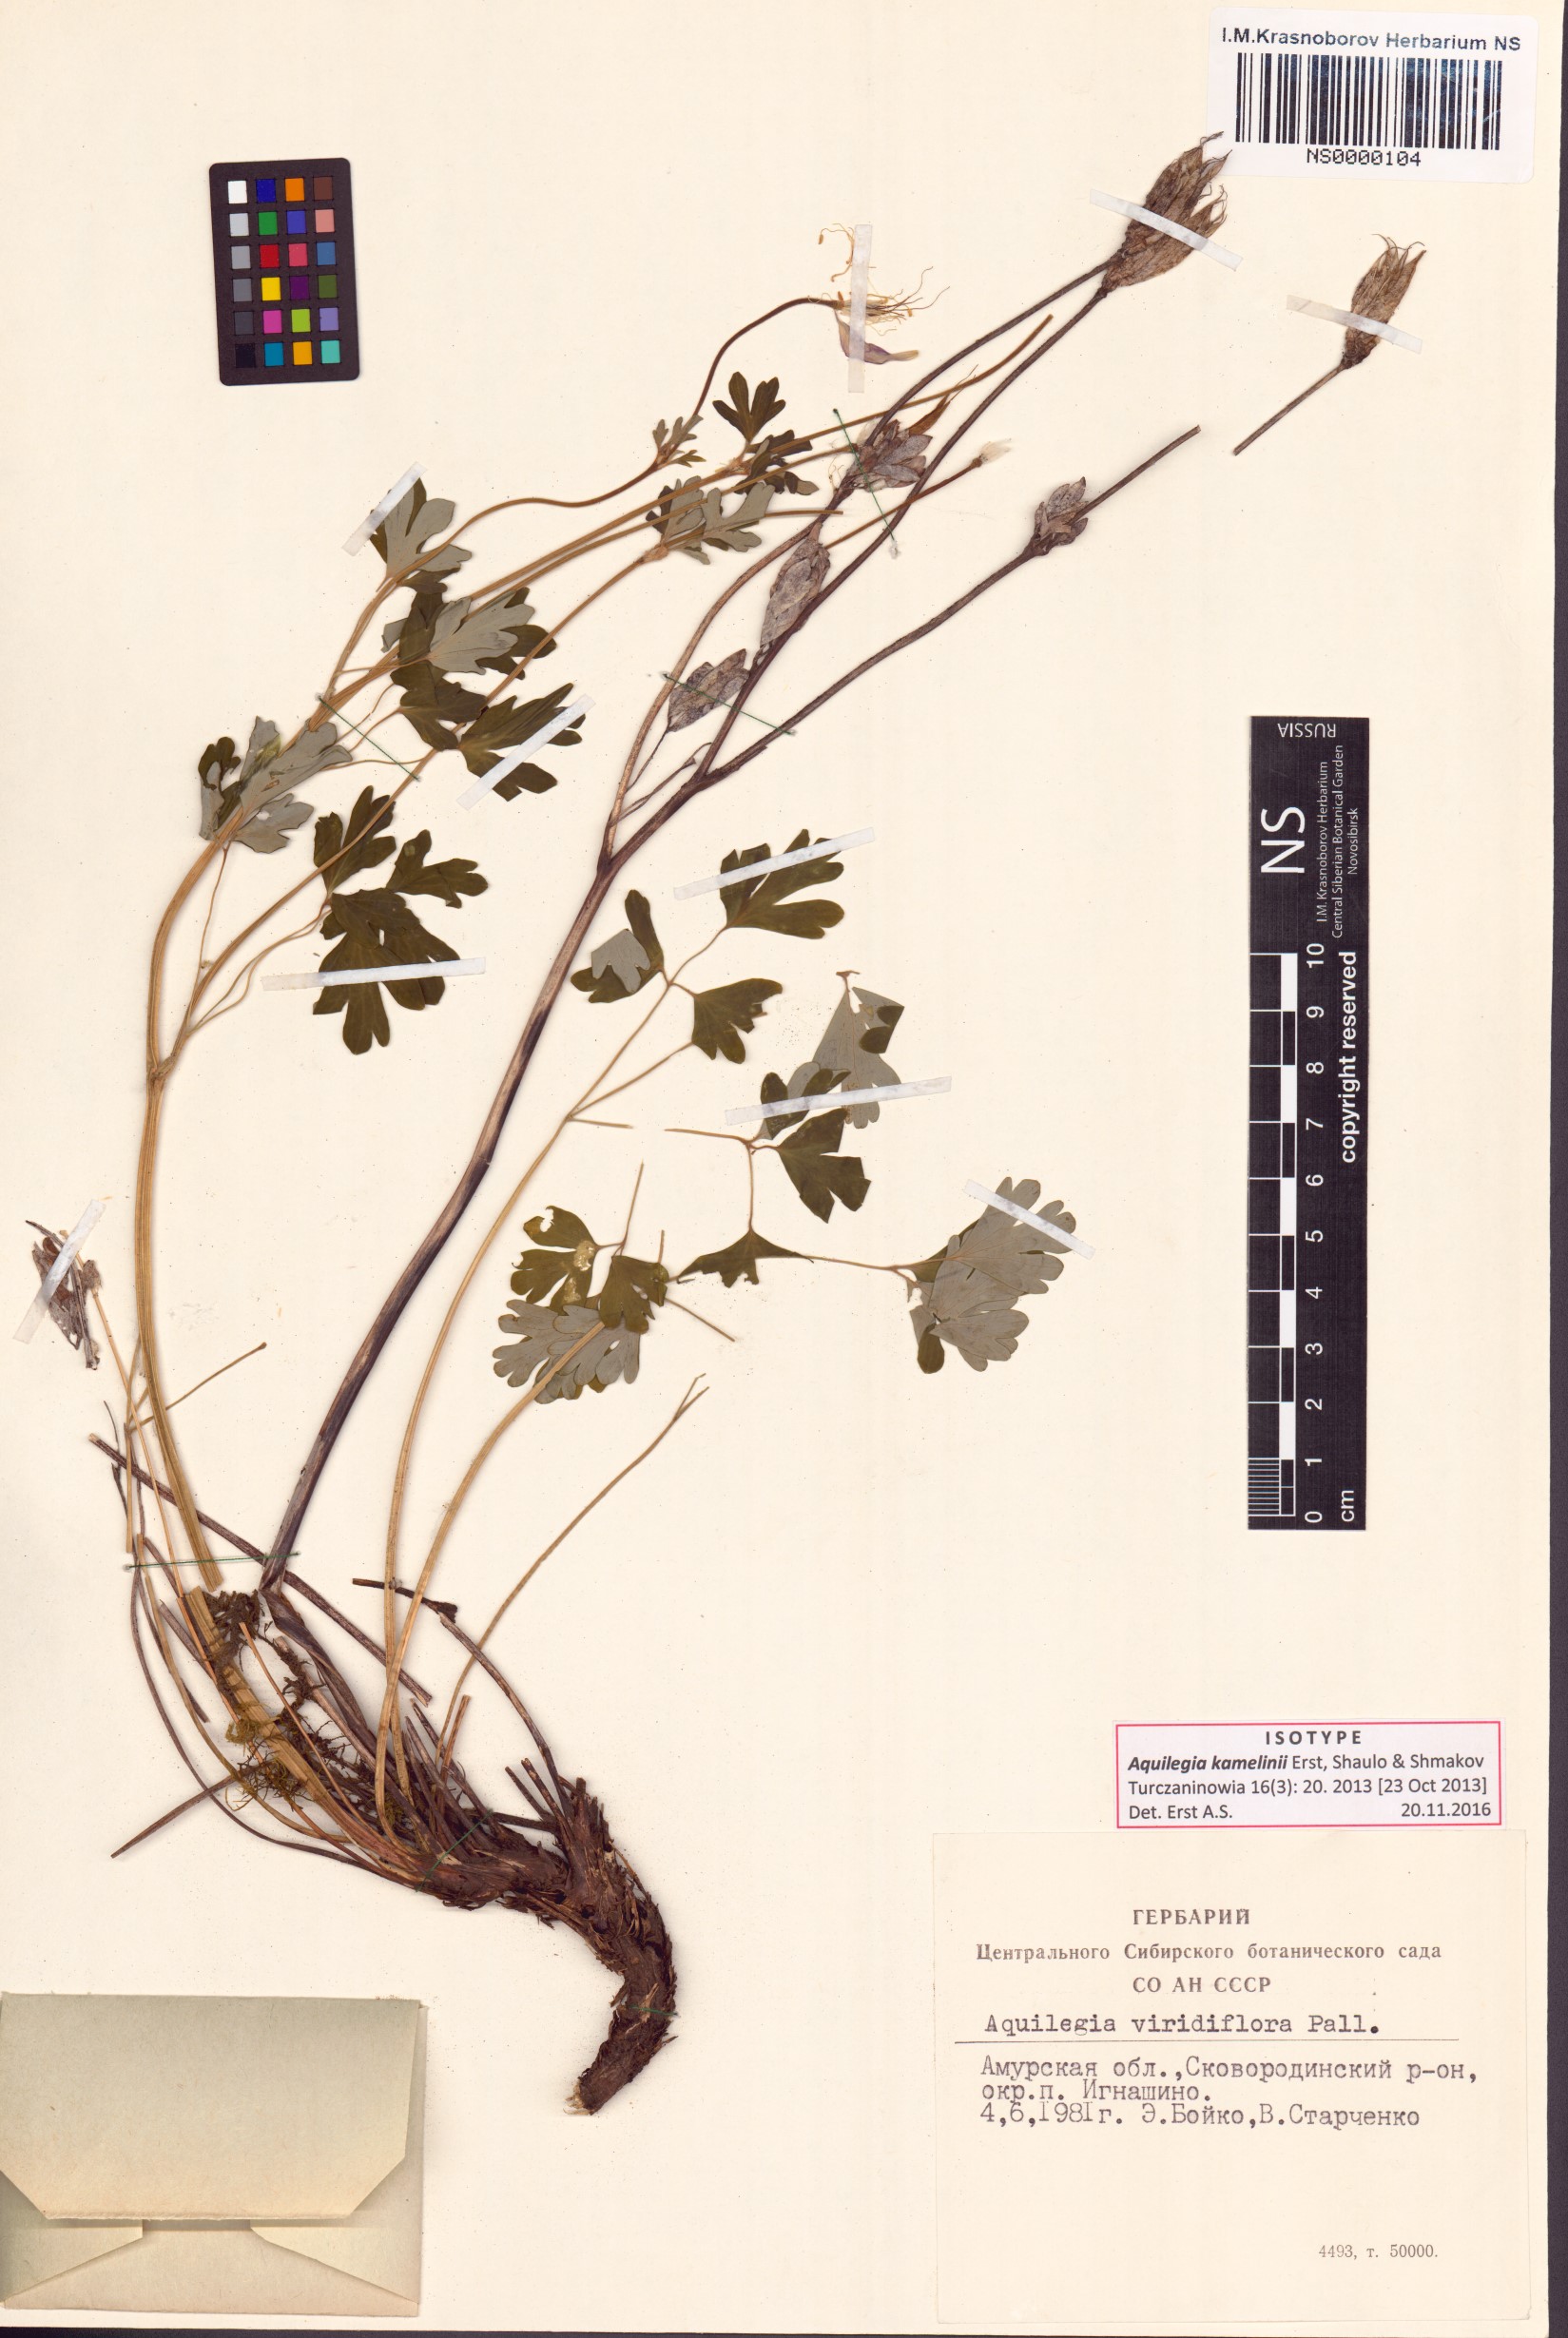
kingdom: Plantae
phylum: Tracheophyta
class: Magnoliopsida
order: Ranunculales
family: Ranunculaceae
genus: Aquilegia
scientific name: Aquilegia kamelinii
